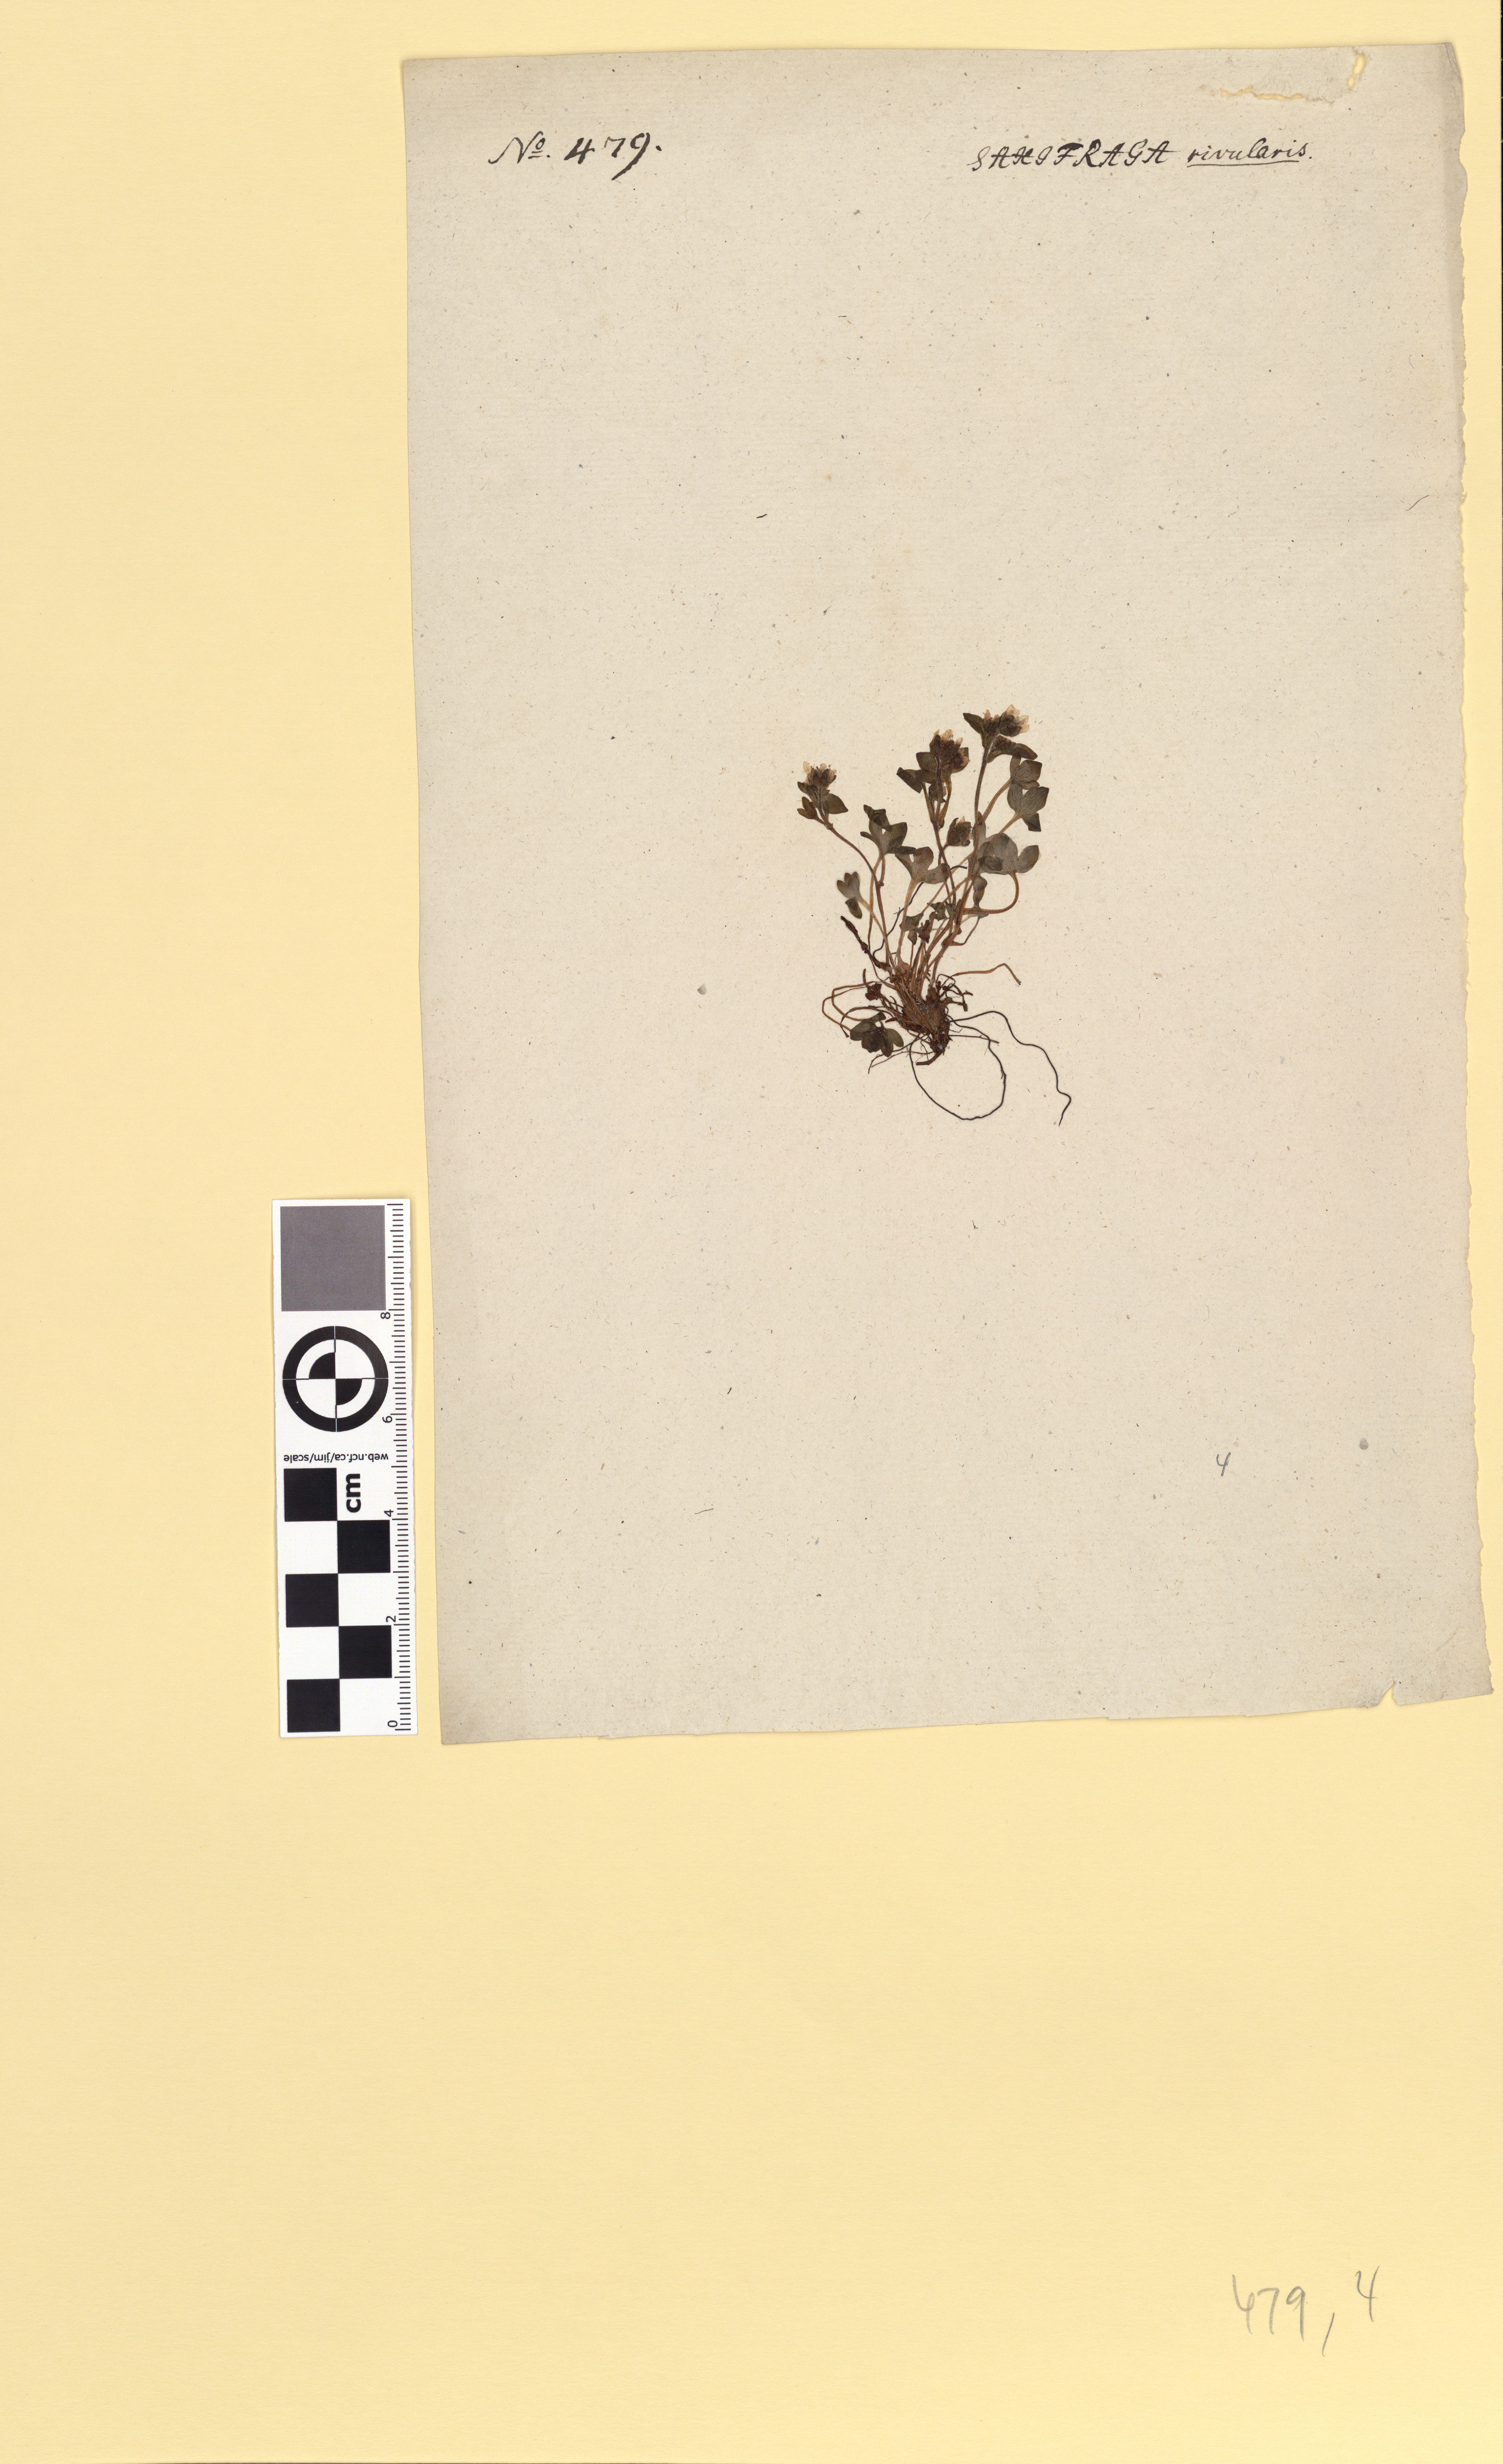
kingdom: Plantae
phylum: Tracheophyta
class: Magnoliopsida
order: Saxifragales
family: Saxifragaceae
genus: Saxifraga
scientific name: Saxifraga rivularis
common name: Highland saxifrage
